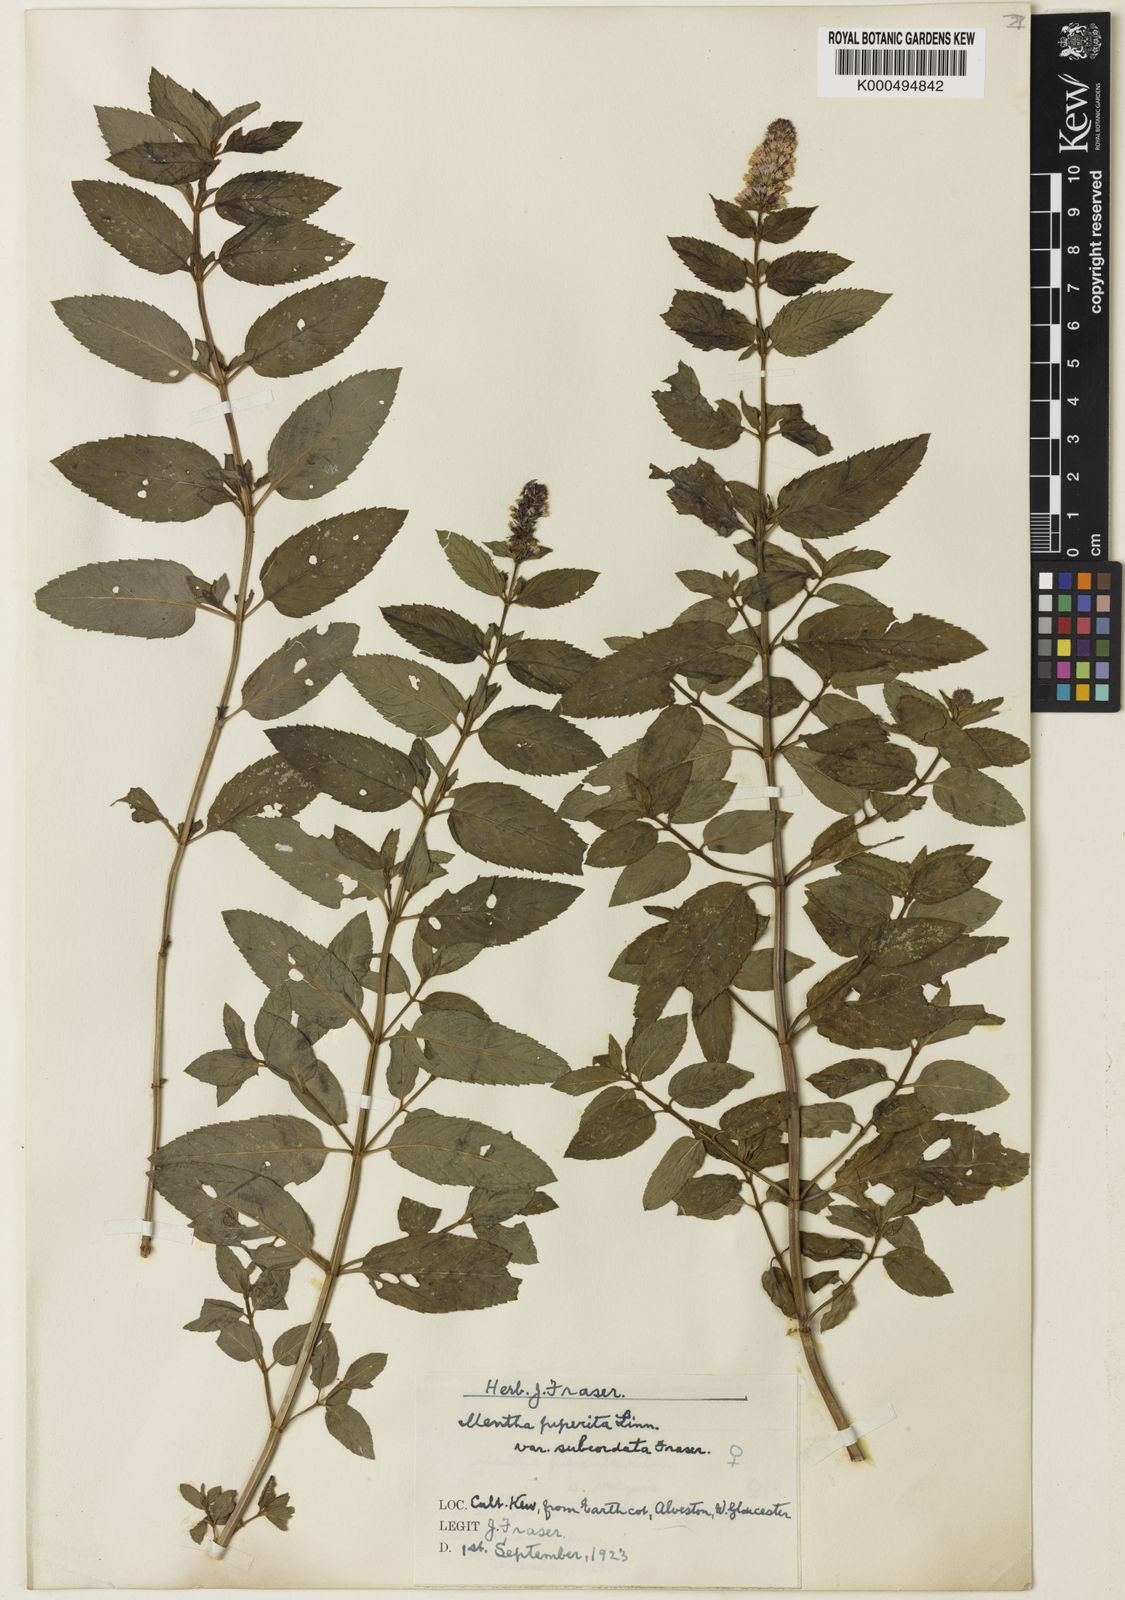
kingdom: Plantae
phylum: Tracheophyta
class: Magnoliopsida
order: Lamiales
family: Lamiaceae
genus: Mentha
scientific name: Mentha piperita
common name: Peppermint
